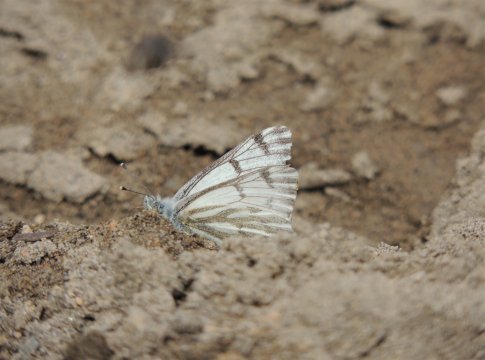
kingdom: Animalia
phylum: Arthropoda
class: Insecta
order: Lepidoptera
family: Pieridae
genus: Pontia
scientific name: Pontia sisymbrii
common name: Spring White
